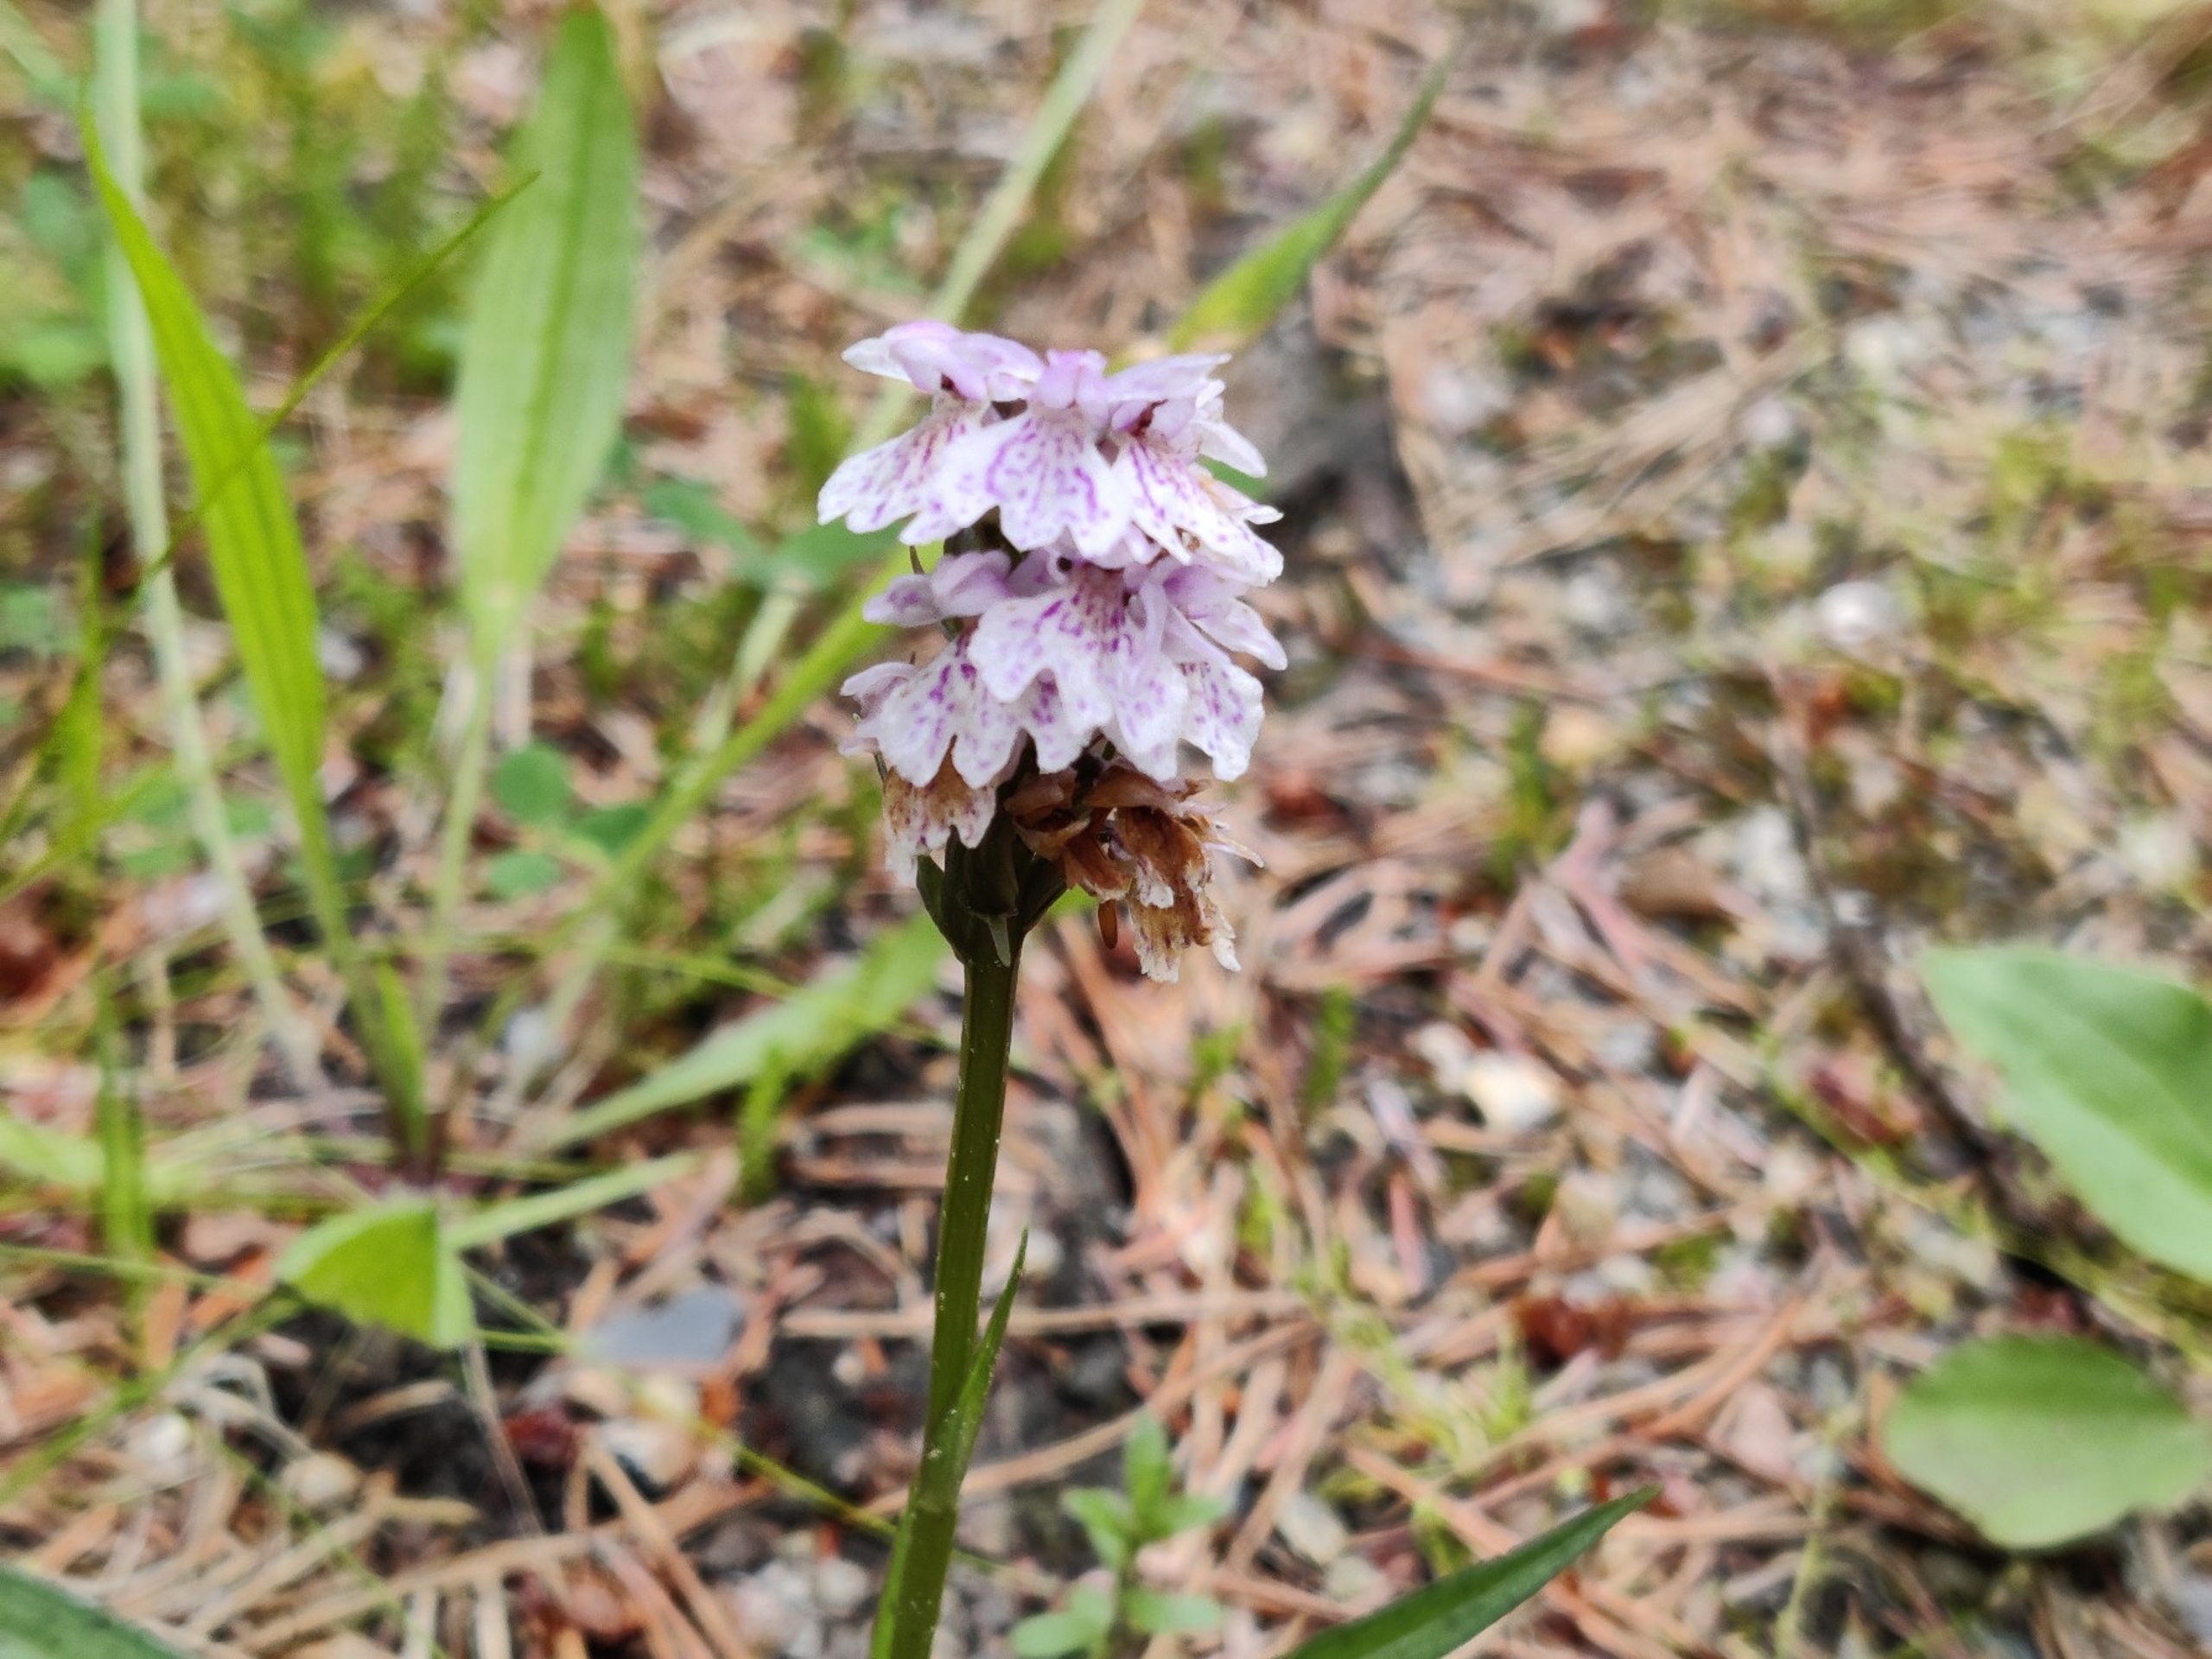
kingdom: Plantae
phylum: Tracheophyta
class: Liliopsida
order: Asparagales
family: Orchidaceae
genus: Dactylorhiza
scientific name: Dactylorhiza maculata
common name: Plettet gøgeurt
